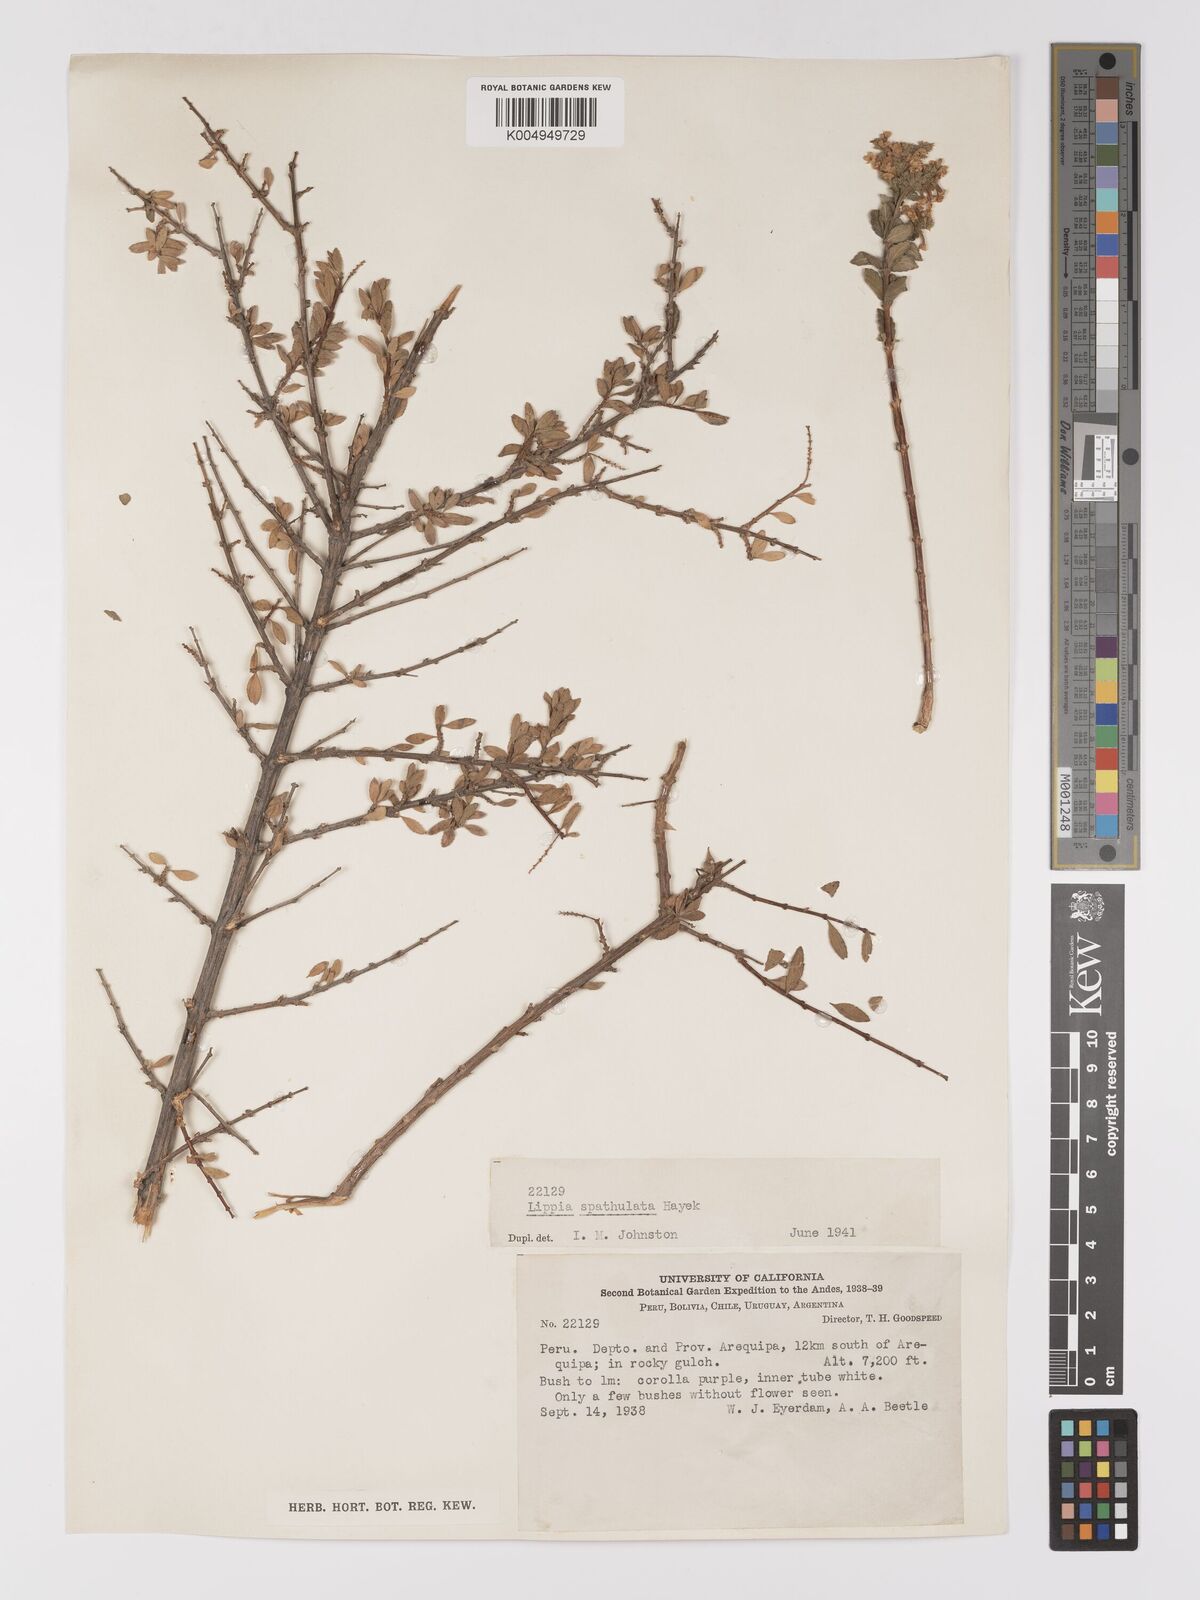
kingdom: Plantae
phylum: Tracheophyta
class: Magnoliopsida
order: Lamiales
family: Verbenaceae
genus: Aloysia
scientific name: Aloysia spathulata
